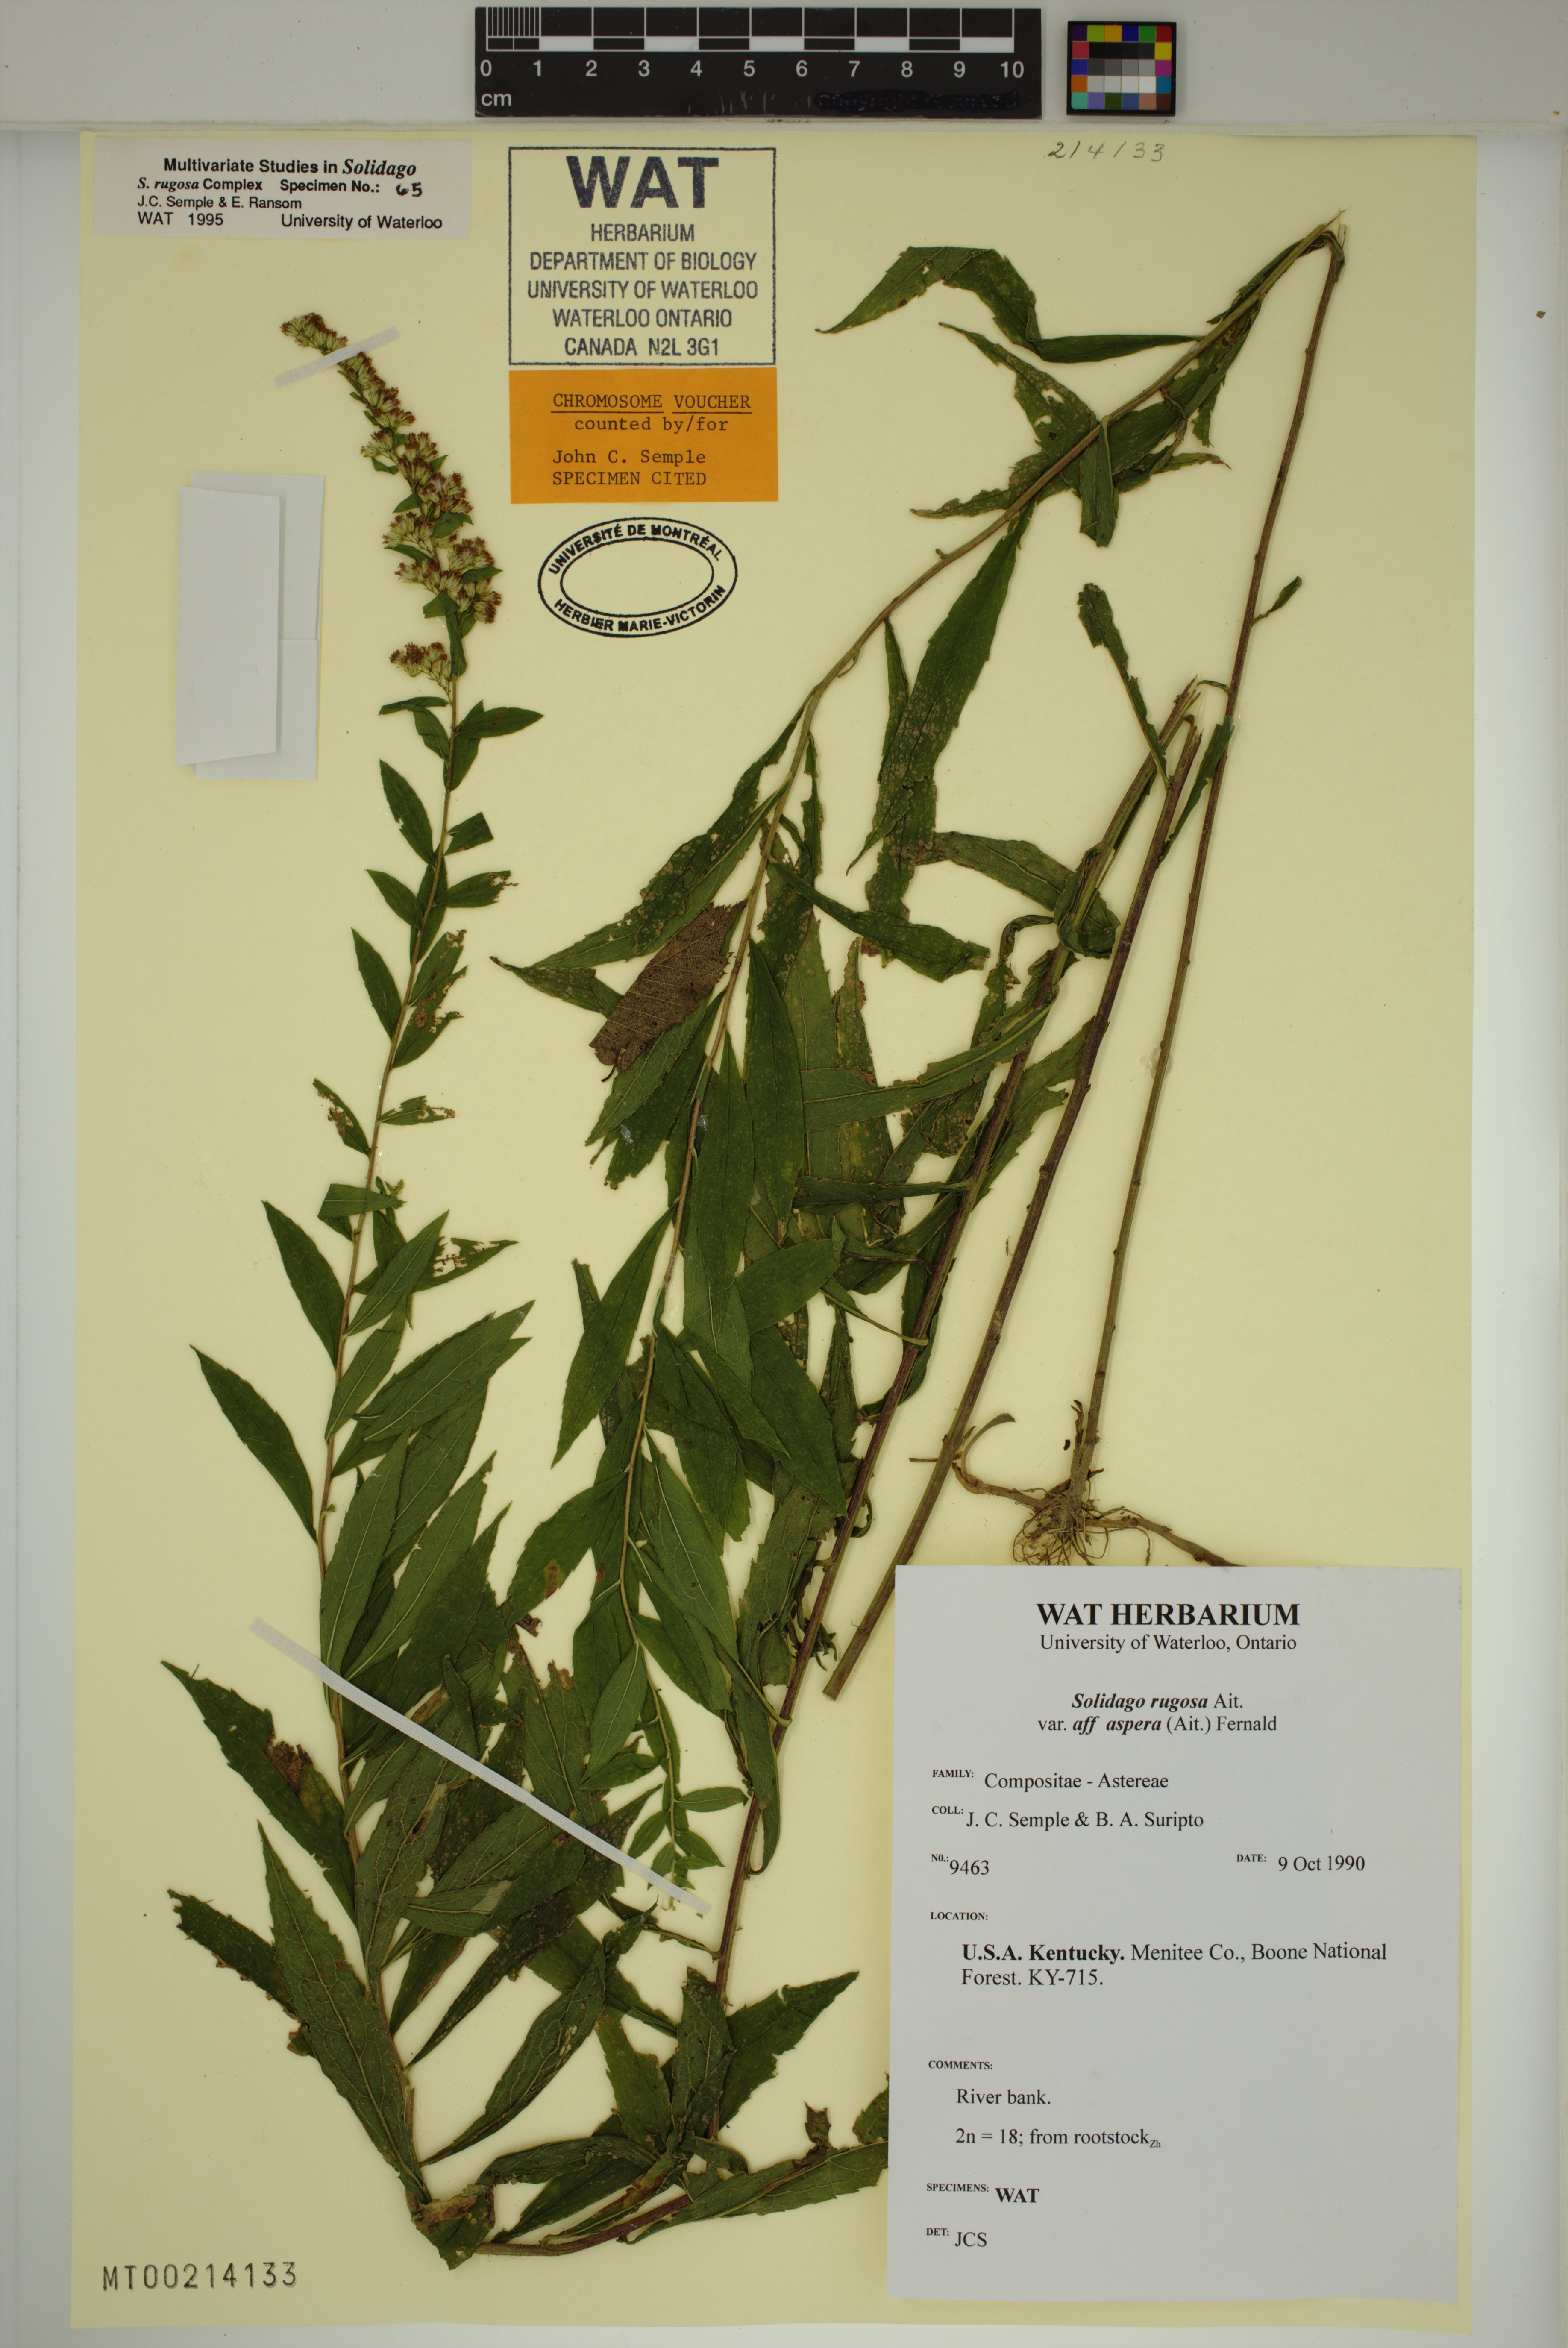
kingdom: Plantae
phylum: Tracheophyta
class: Magnoliopsida
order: Asterales
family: Asteraceae
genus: Solidago
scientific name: Solidago rugosa
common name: Rough-stemmed goldenrod
